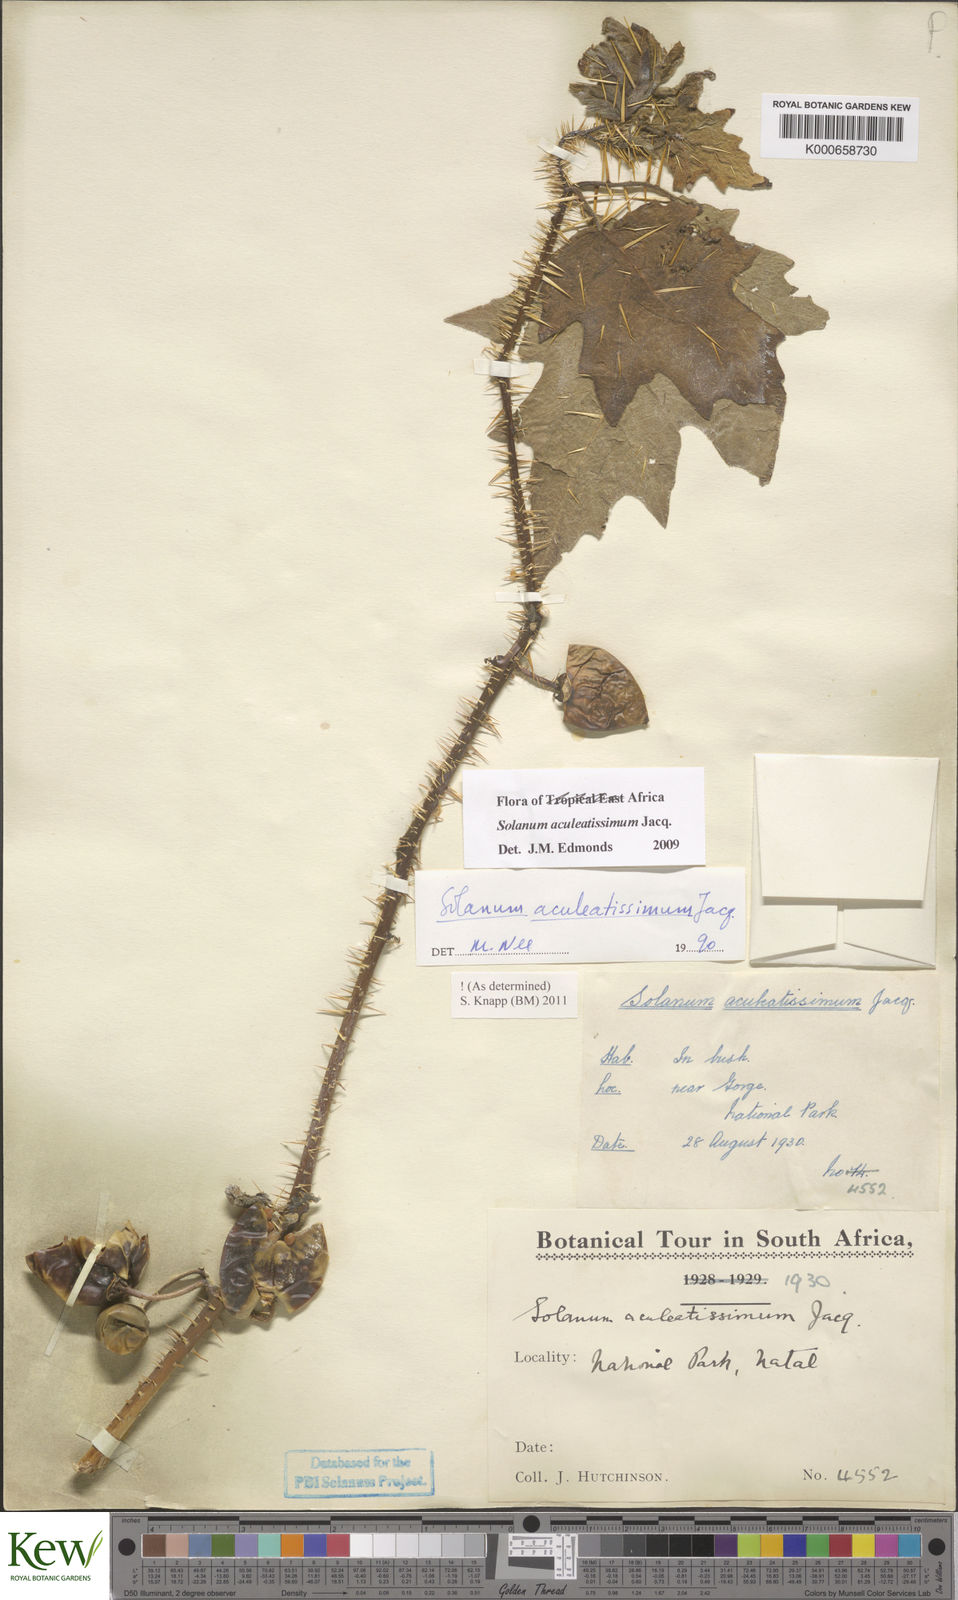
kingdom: Plantae
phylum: Tracheophyta
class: Magnoliopsida
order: Solanales
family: Solanaceae
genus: Solanum
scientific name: Solanum aculeatissimum
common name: Dutch eggplant
